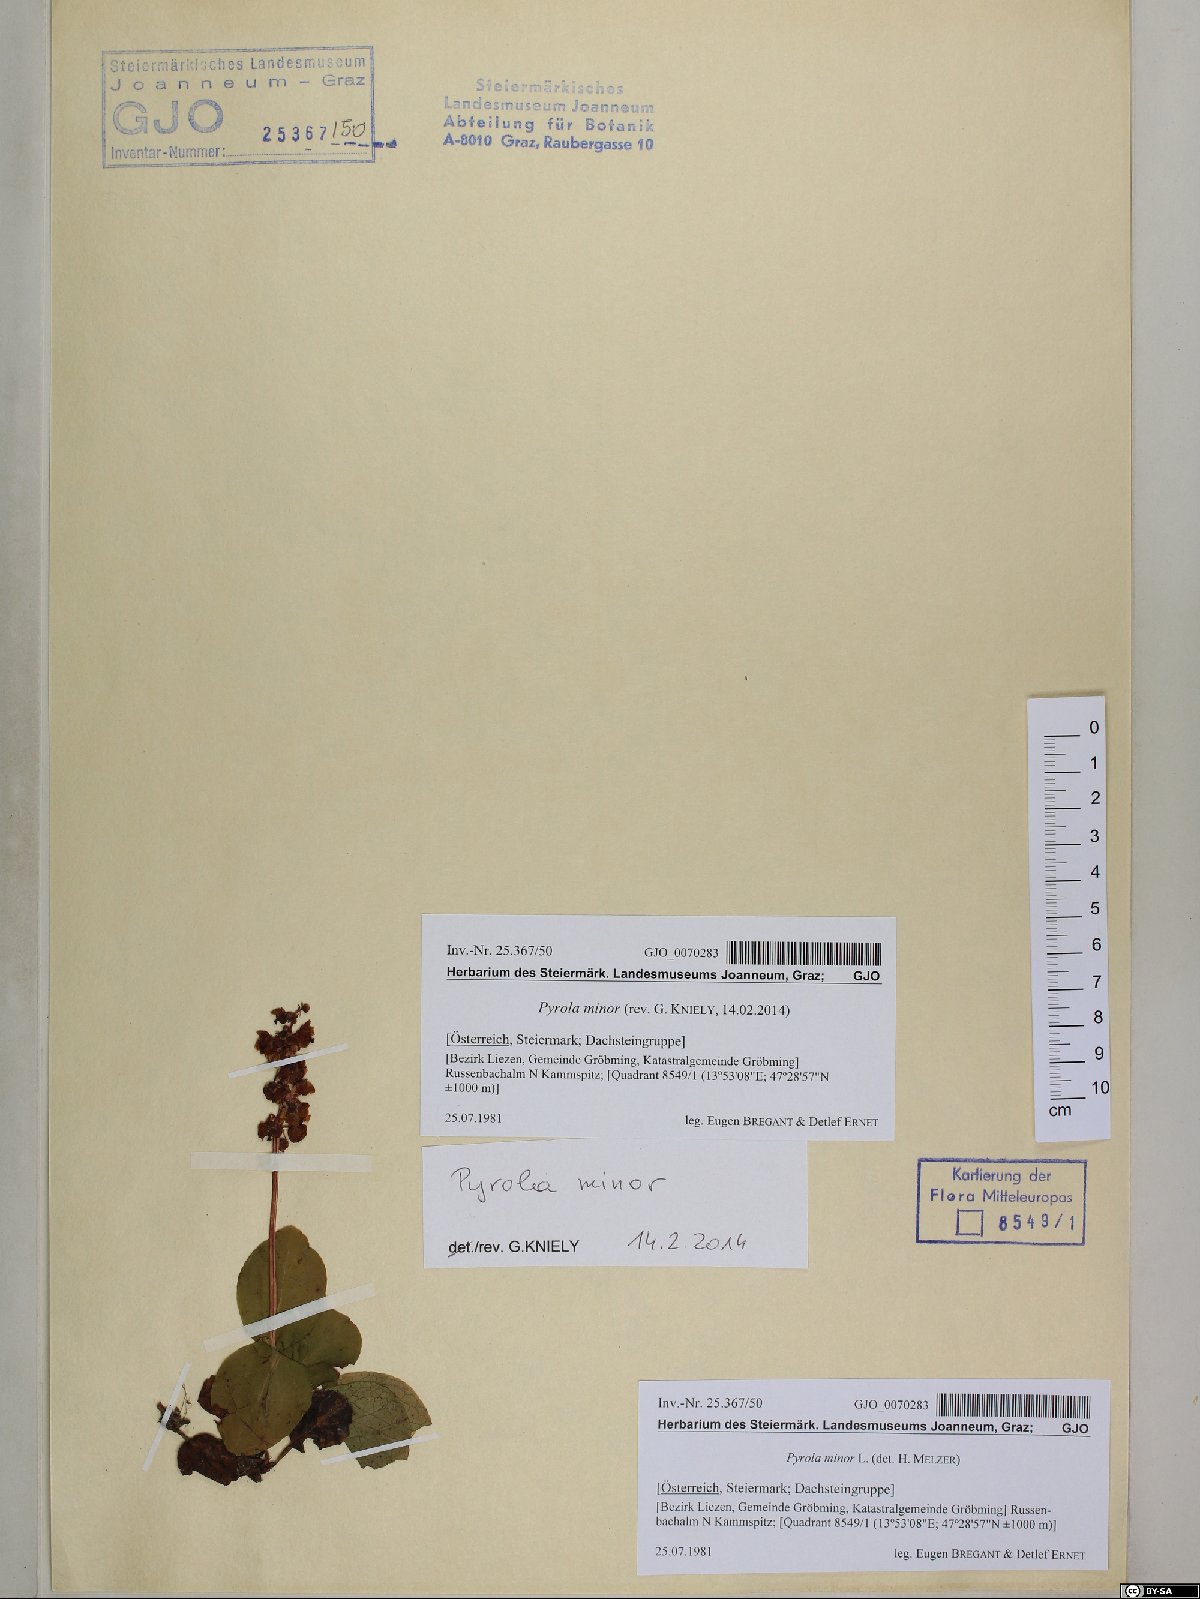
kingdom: Plantae
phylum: Tracheophyta
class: Magnoliopsida
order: Ericales
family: Ericaceae
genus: Pyrola
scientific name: Pyrola minor
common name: Common wintergreen
